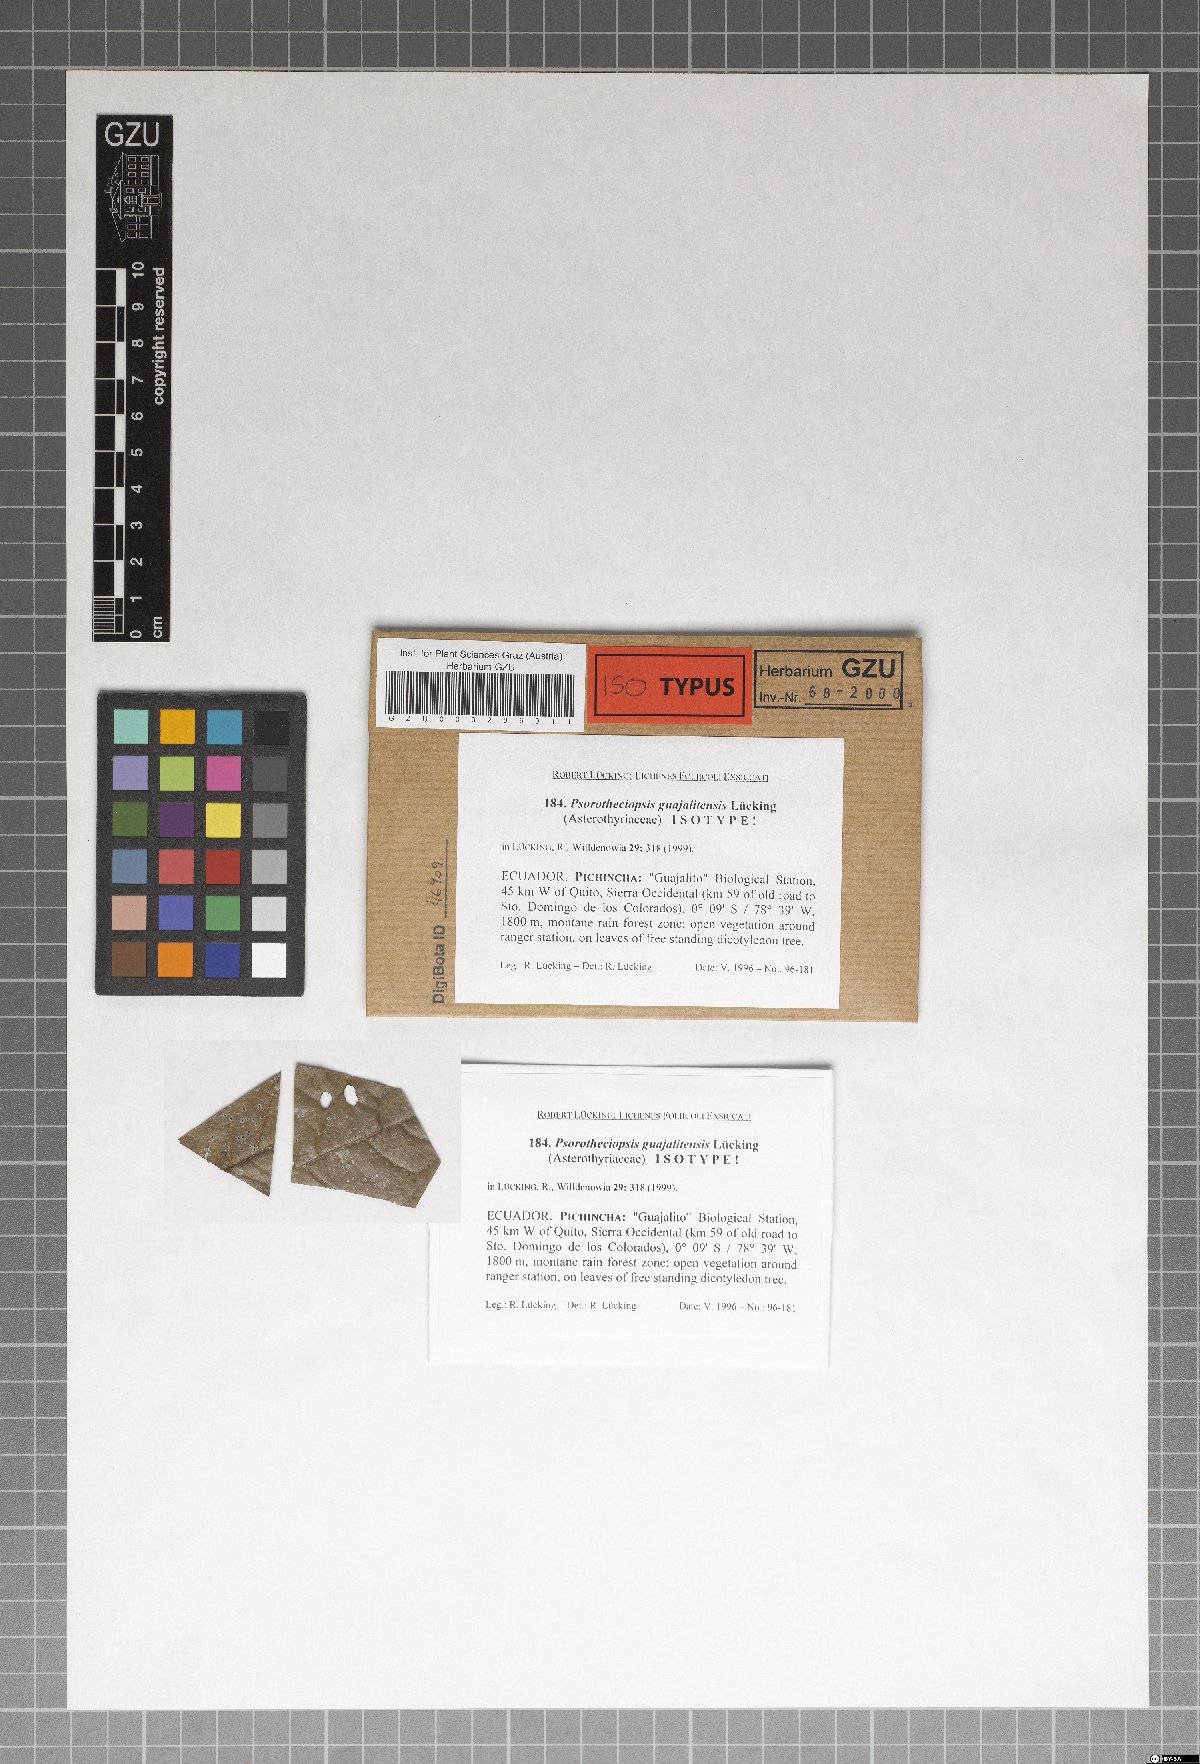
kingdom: Fungi
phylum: Ascomycota
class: Lecanoromycetes
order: Ostropales
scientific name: Ostropales
